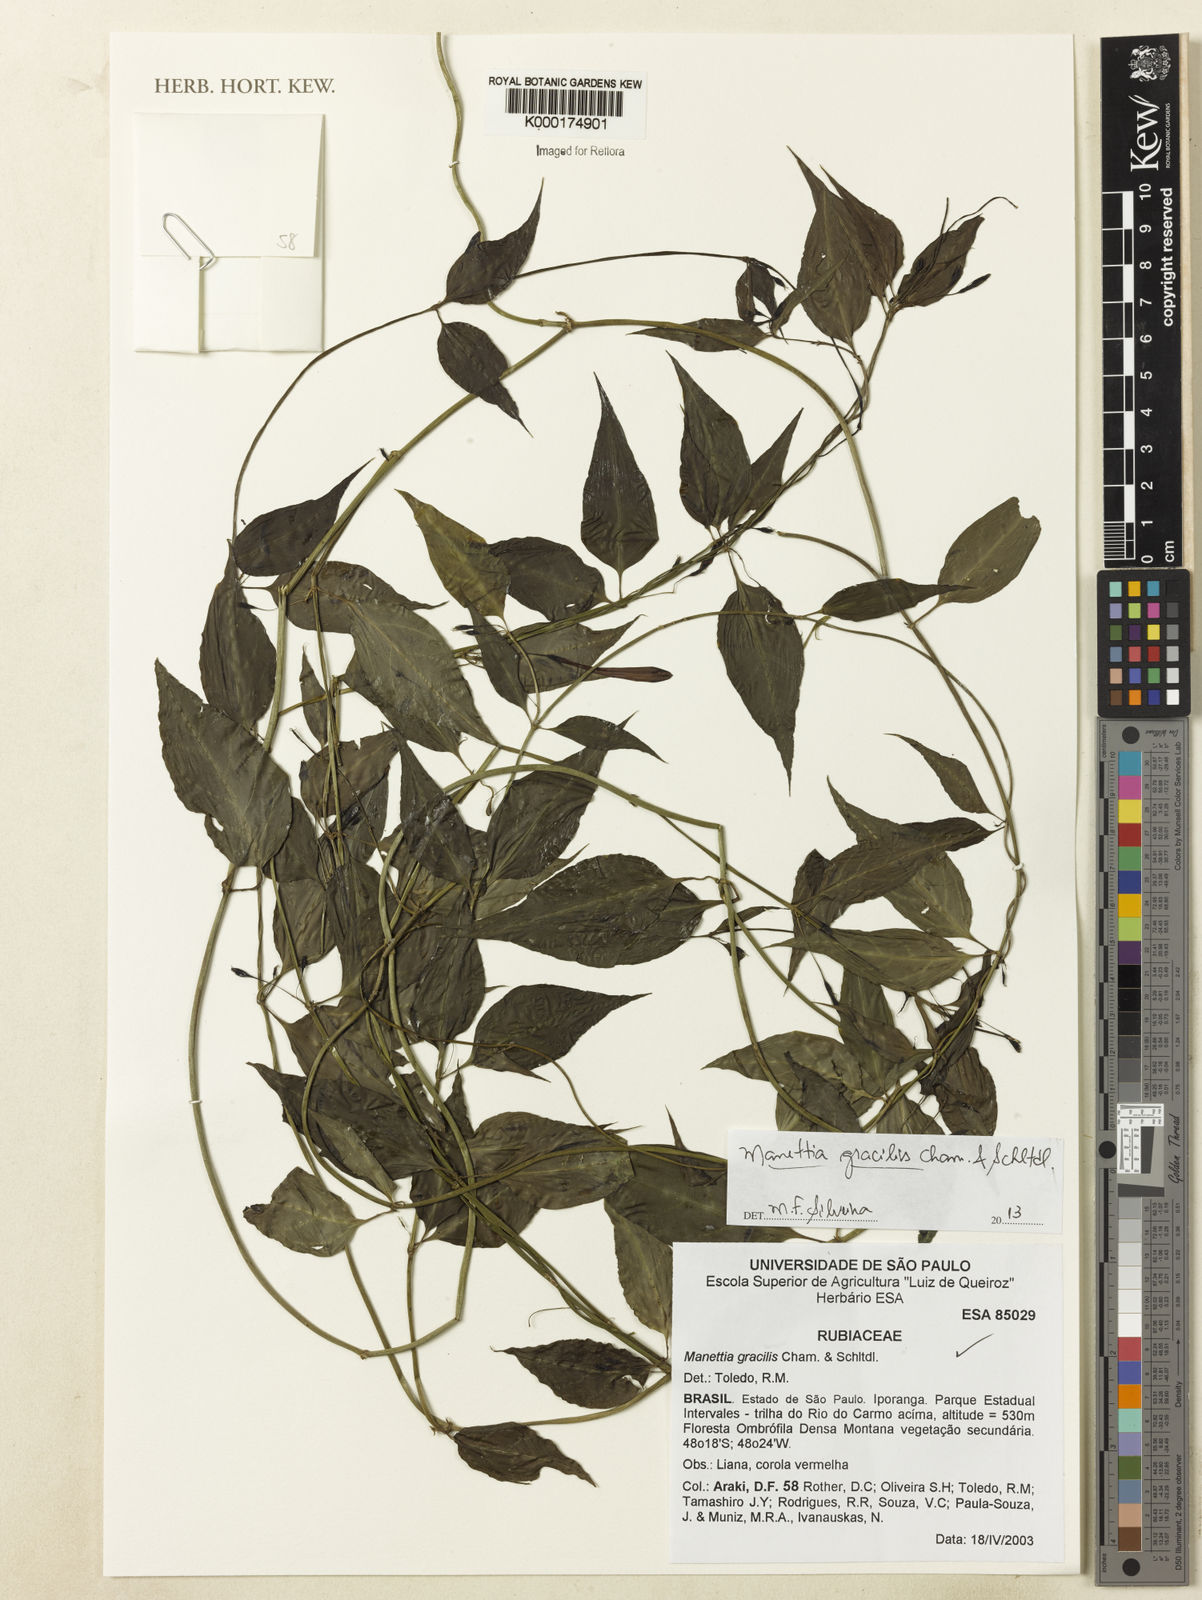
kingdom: Plantae
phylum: Tracheophyta
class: Magnoliopsida
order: Gentianales
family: Rubiaceae
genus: Manettia
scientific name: Manettia gracilis
